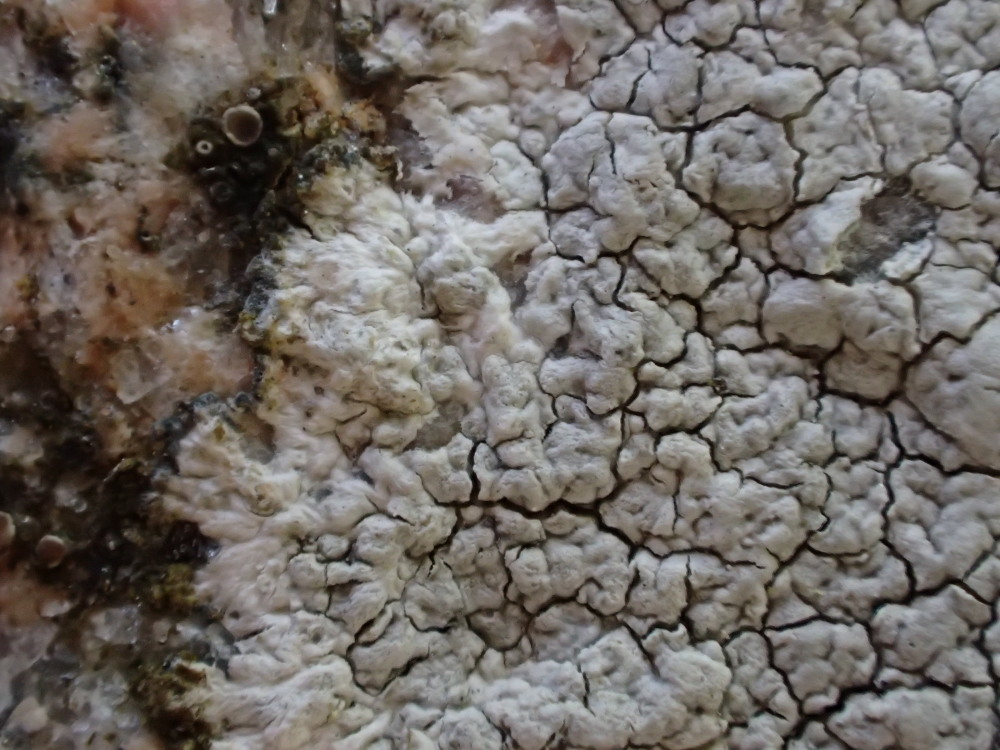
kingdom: Fungi
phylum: Ascomycota
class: Lecanoromycetes
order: Lecanorales
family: Lecanoraceae
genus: Glaucomaria
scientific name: Glaucomaria rupicola
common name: stengærde-kantskivelav
